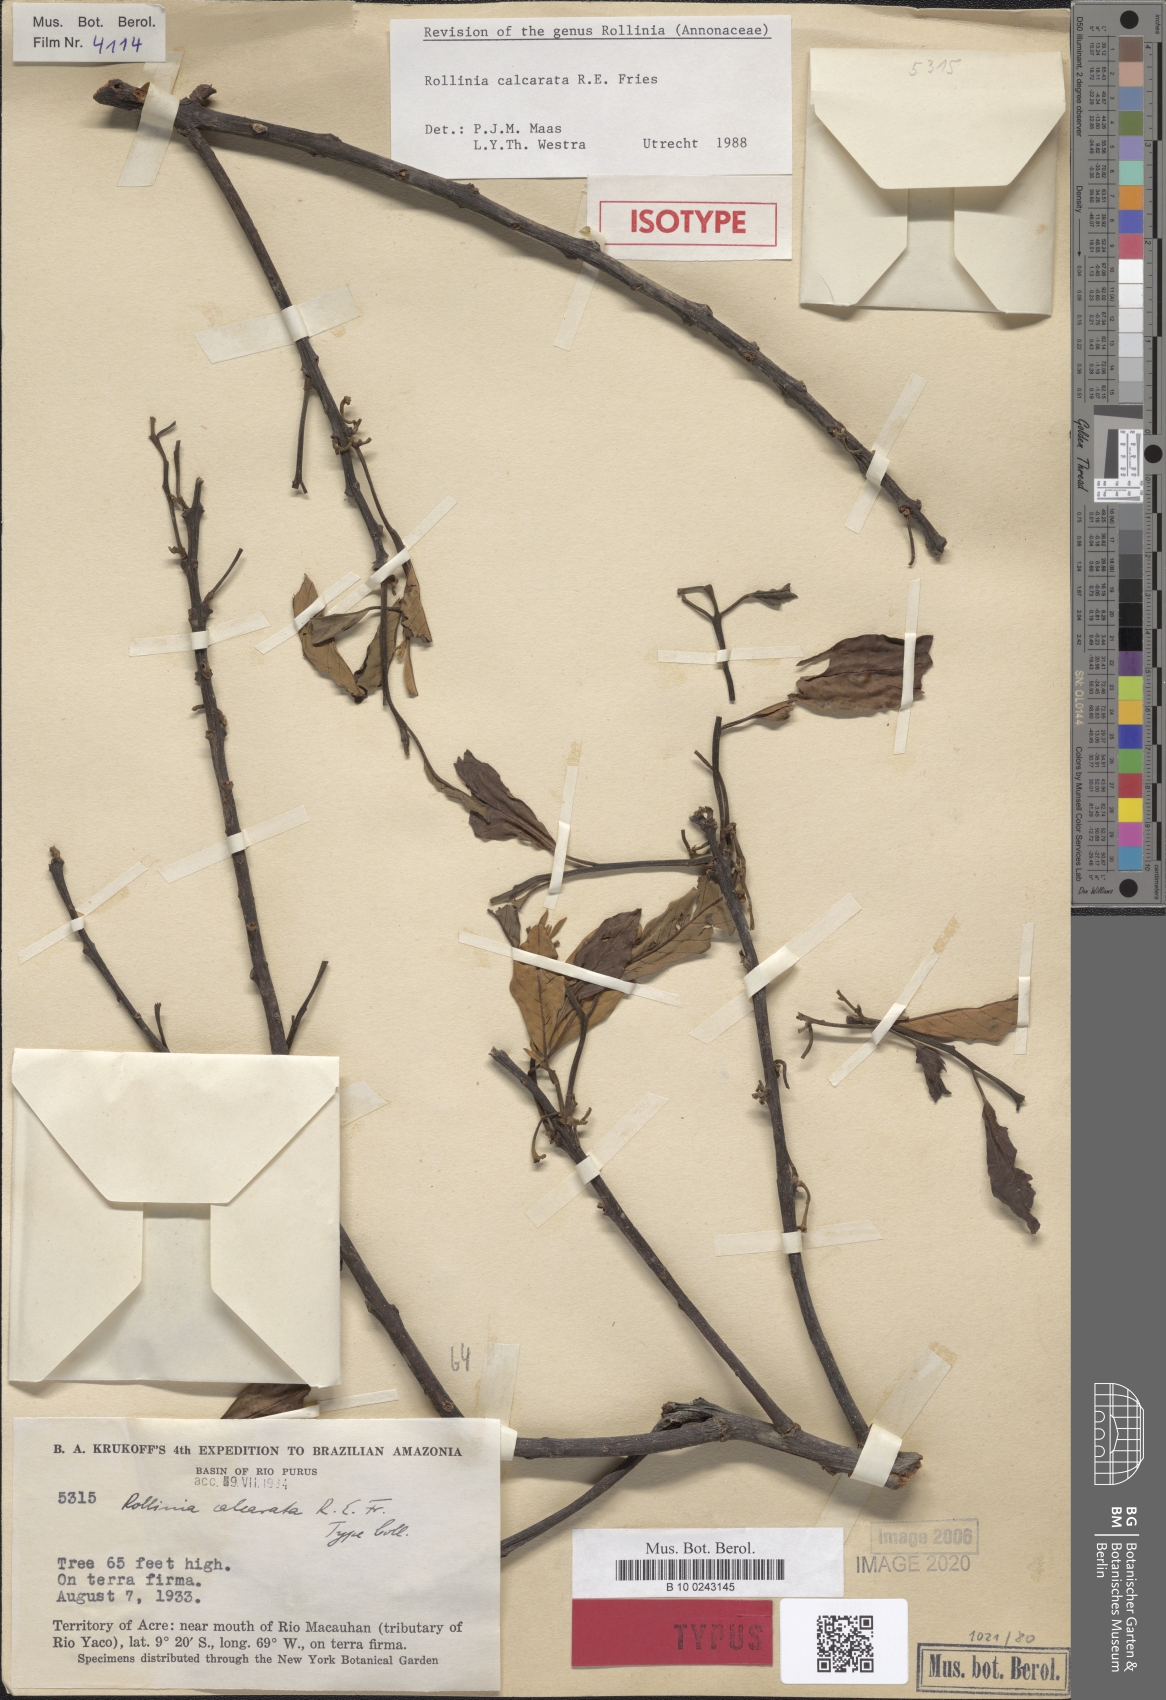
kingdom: Plantae
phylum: Tracheophyta
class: Magnoliopsida
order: Magnoliales
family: Annonaceae
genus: Annona
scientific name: Annona calcarata
